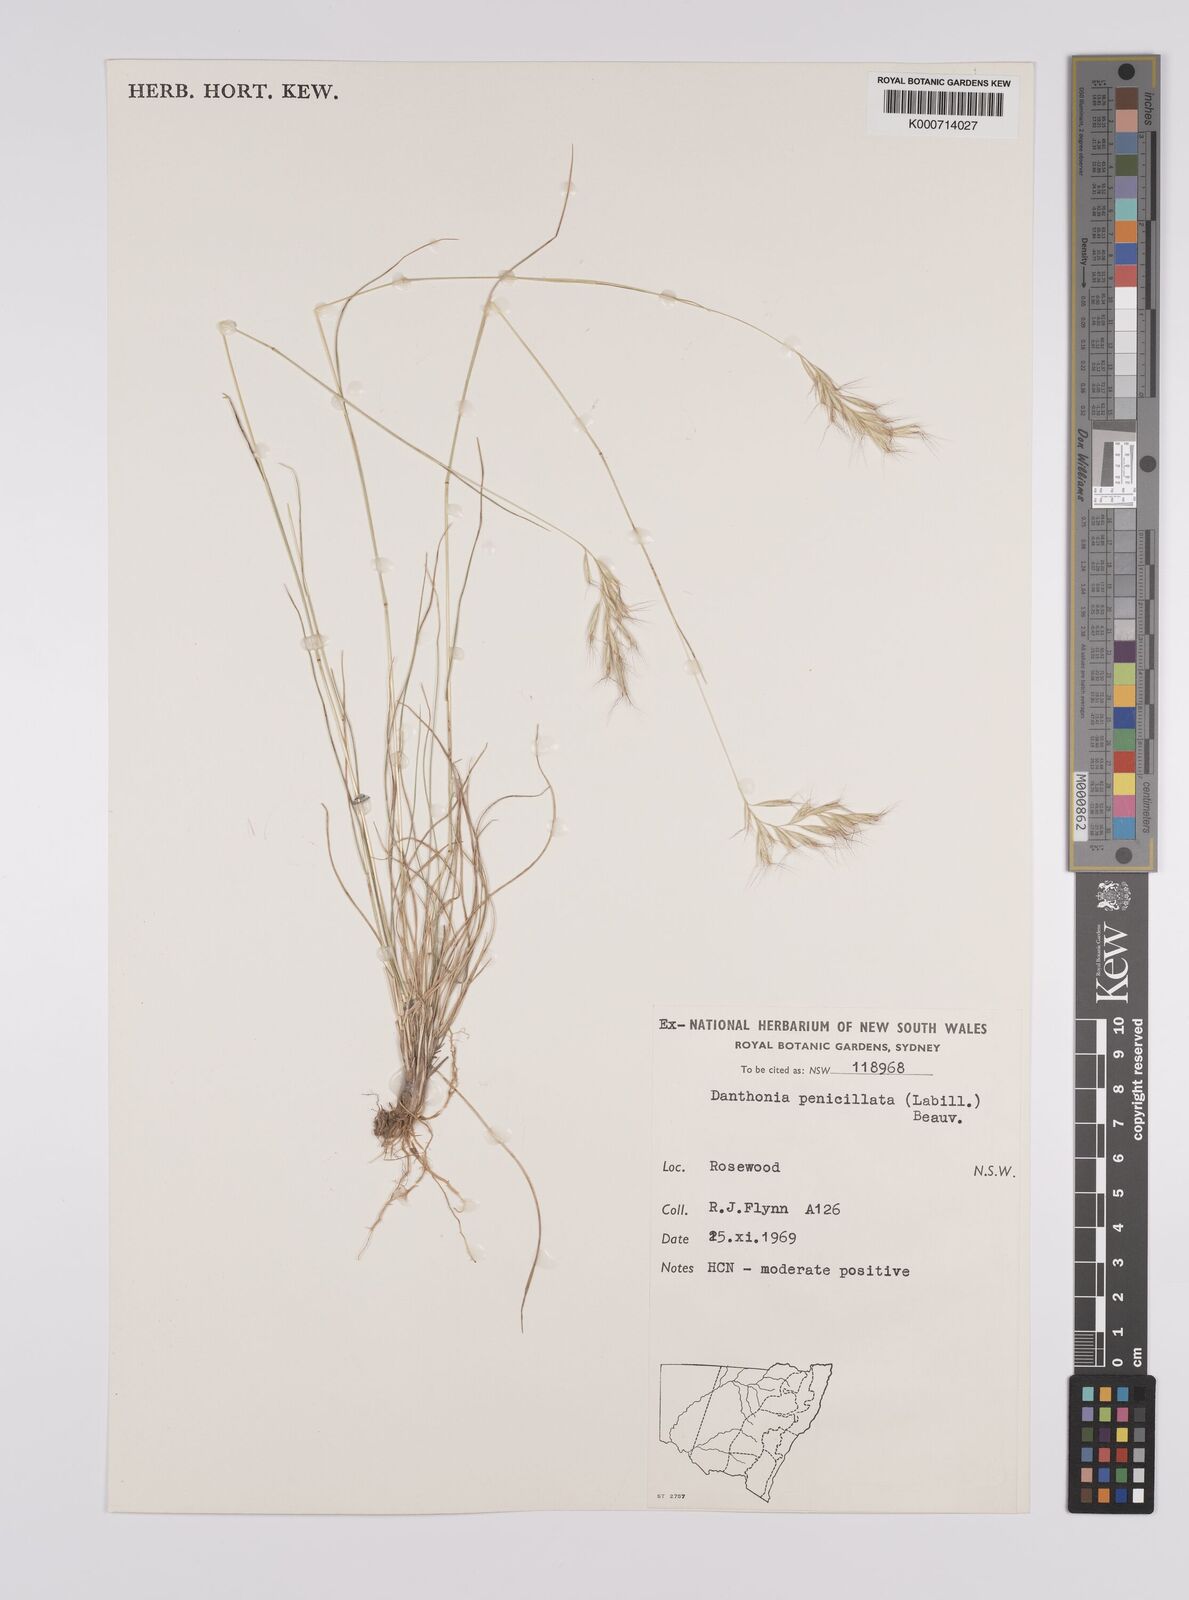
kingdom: Plantae
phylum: Tracheophyta
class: Liliopsida
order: Poales
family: Poaceae
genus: Rytidosperma
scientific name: Rytidosperma penicillatum
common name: Hairy wallaby grass
